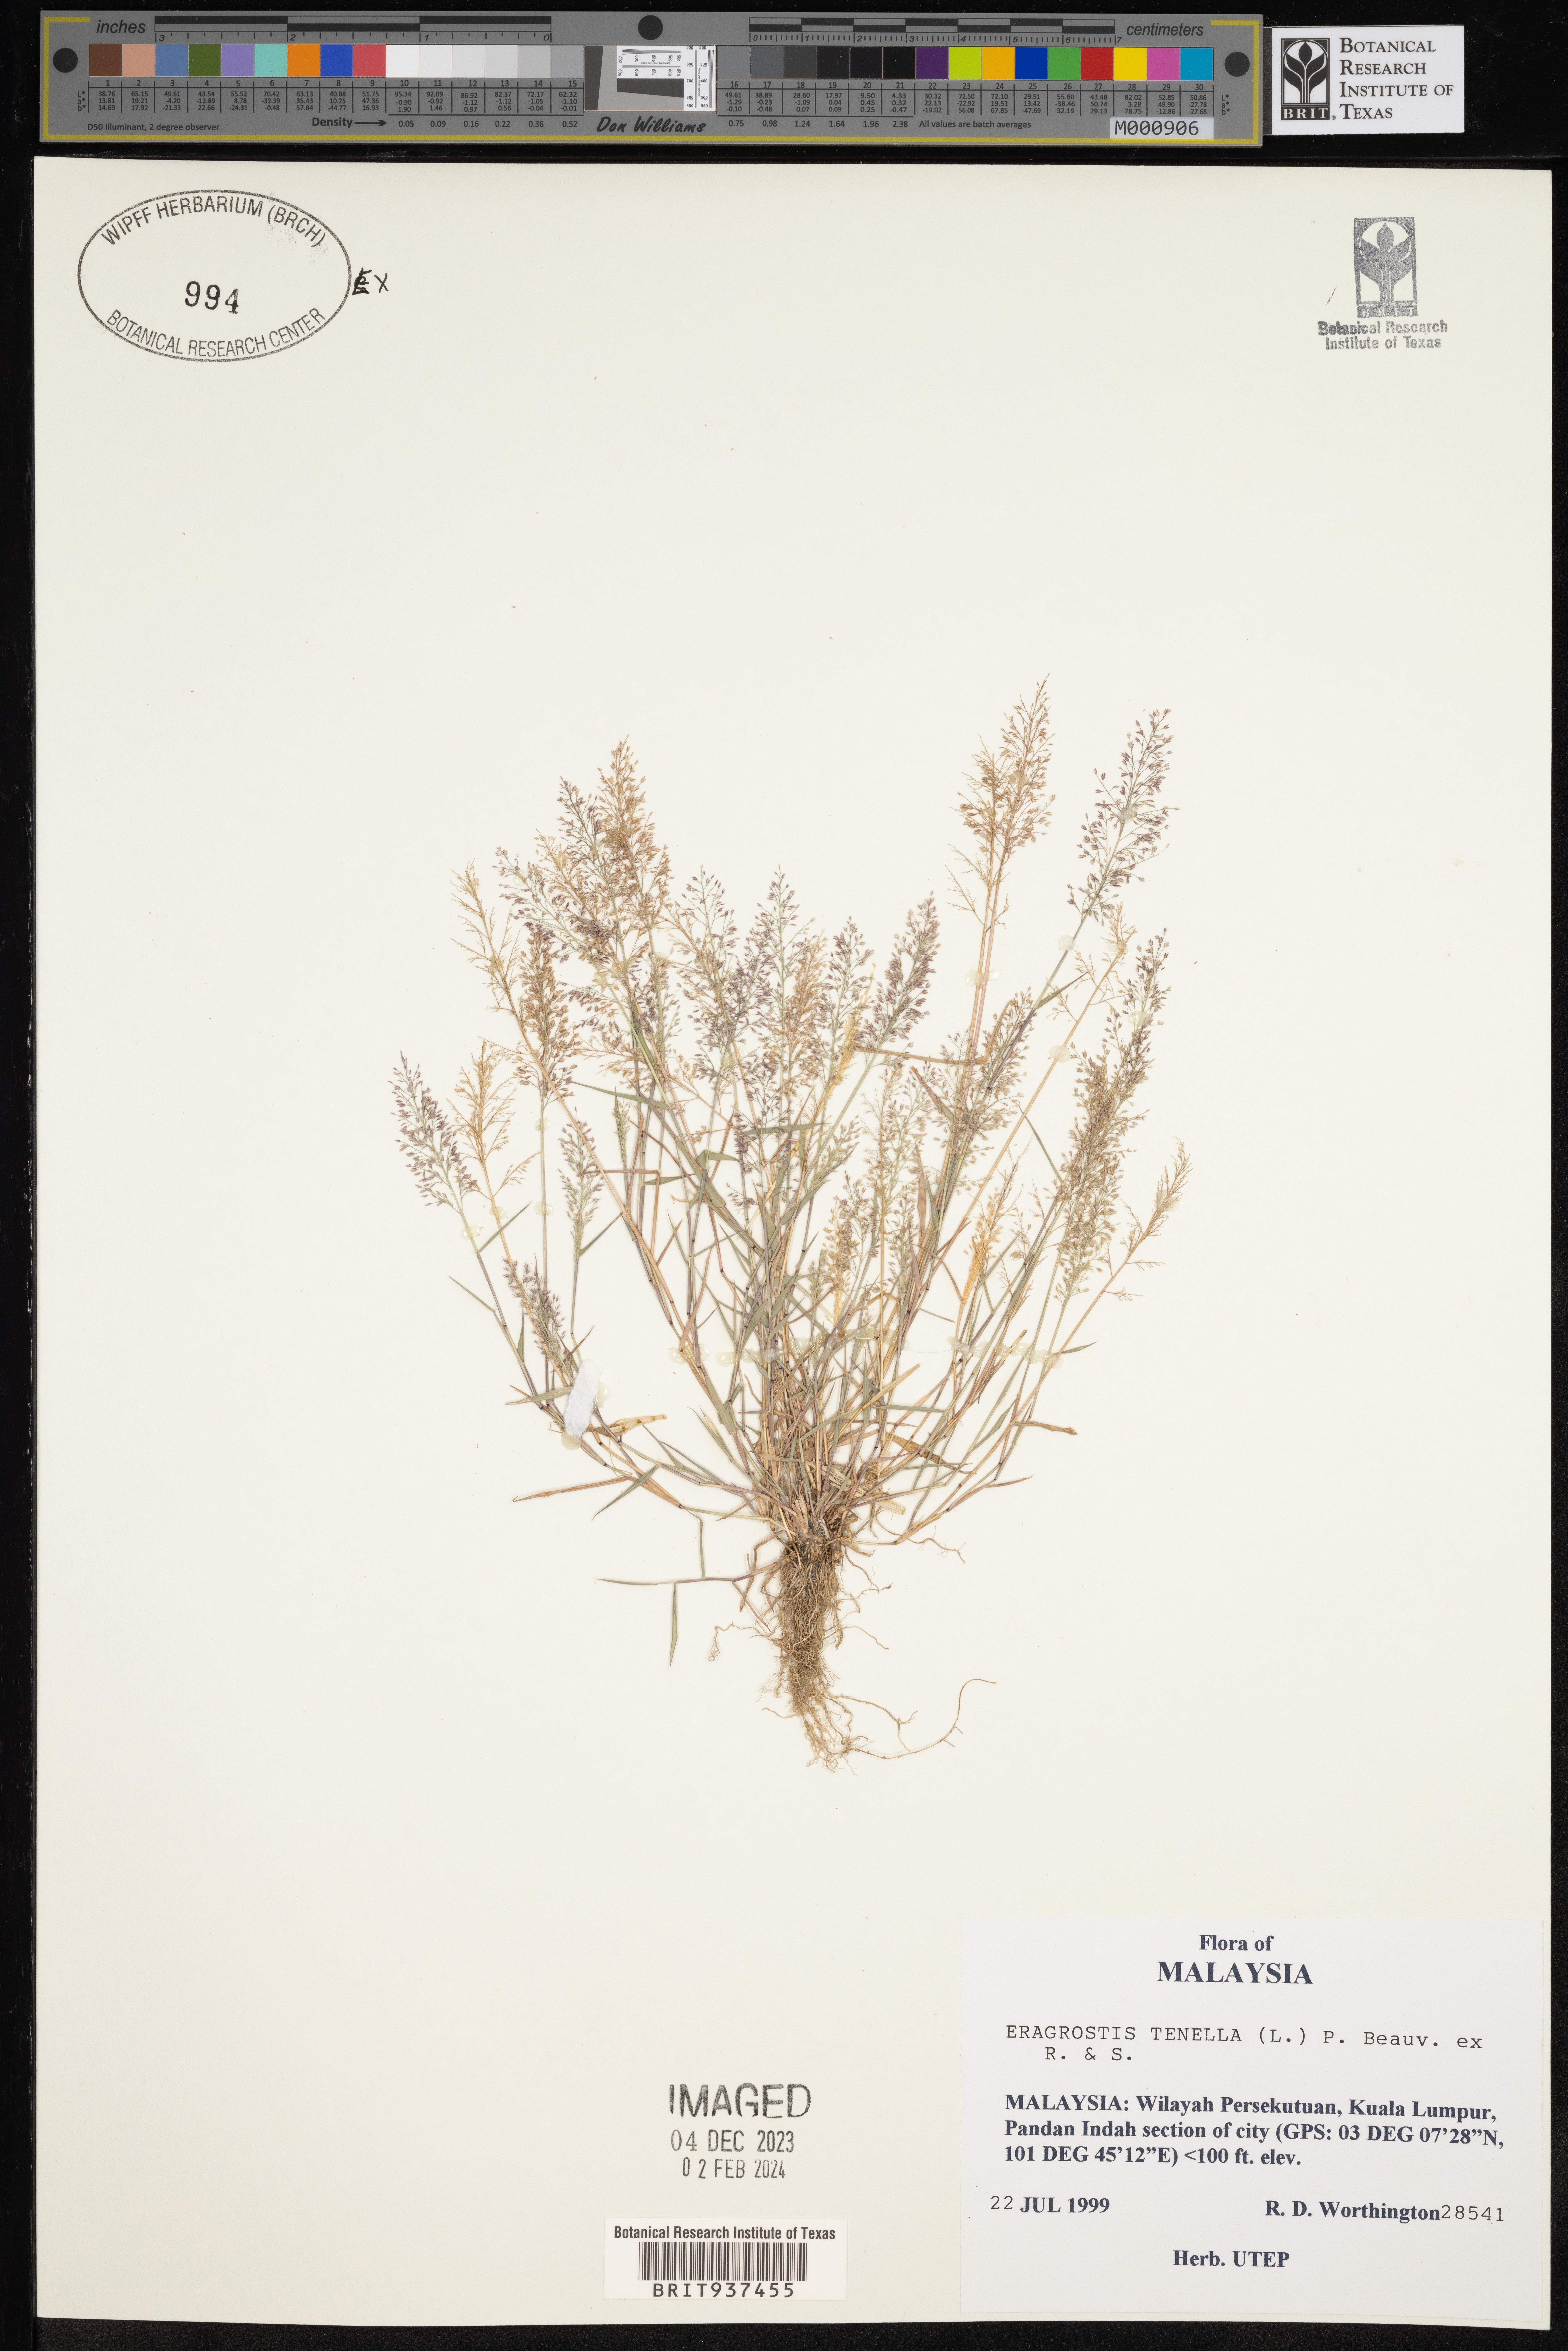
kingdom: Plantae
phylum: Tracheophyta
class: Liliopsida
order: Poales
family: Poaceae
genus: Eragrostis
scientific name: Eragrostis
